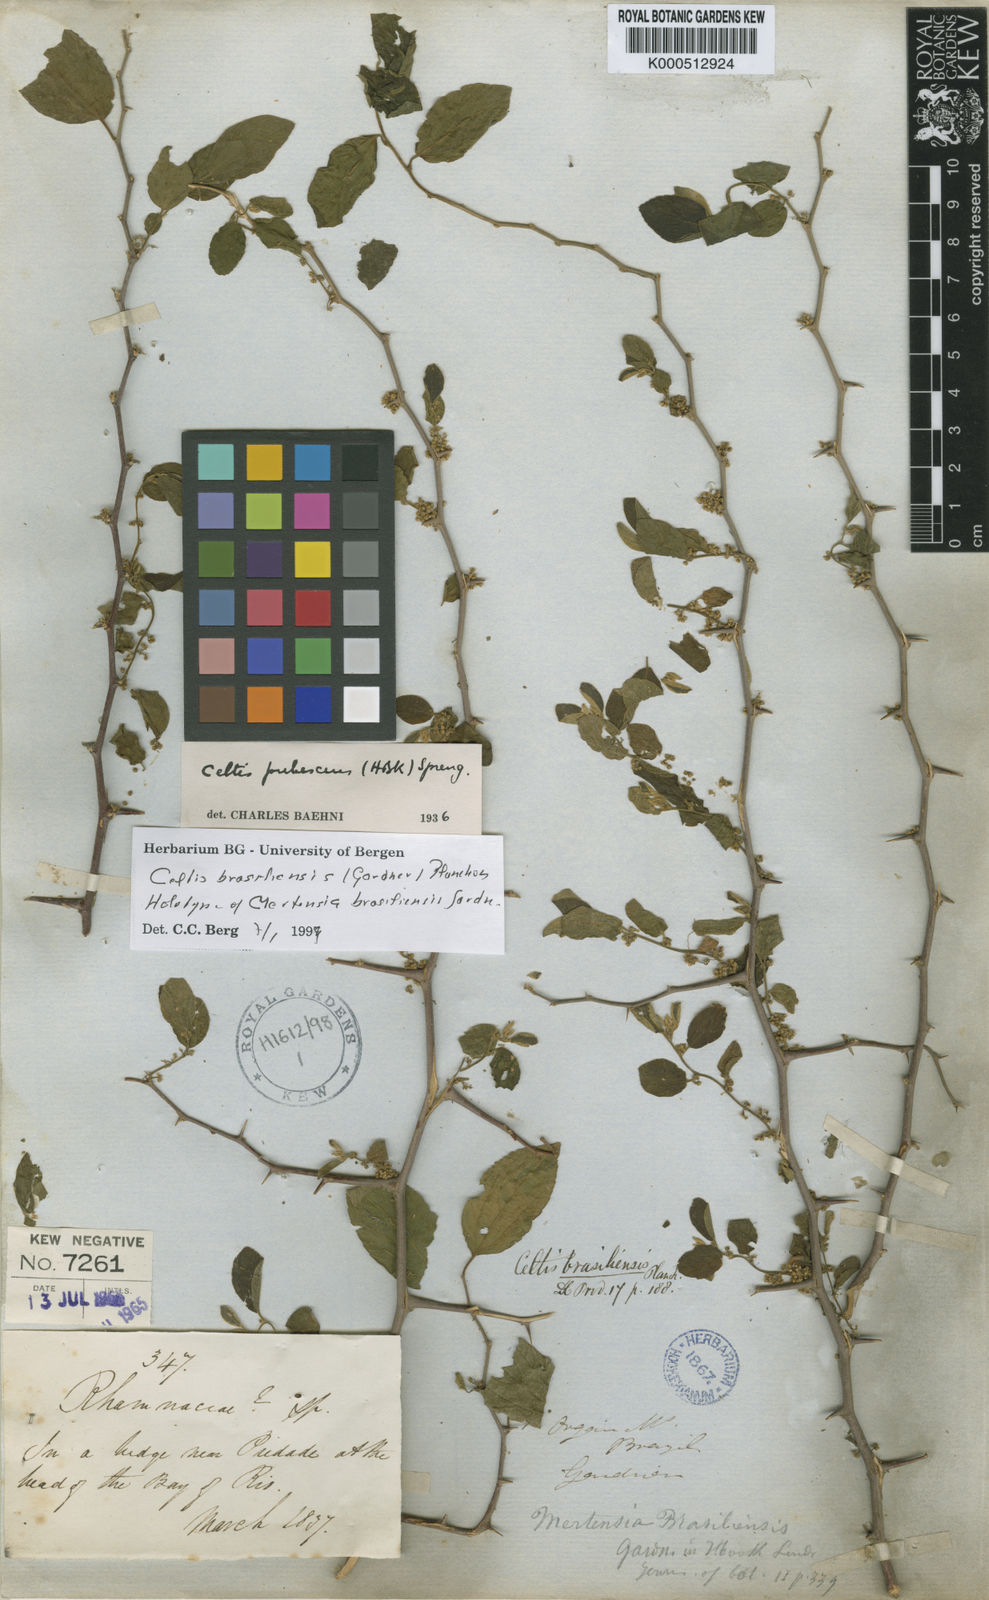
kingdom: Plantae
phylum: Tracheophyta
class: Magnoliopsida
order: Rosales
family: Cannabaceae
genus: Celtis
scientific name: Celtis brasiliensis
